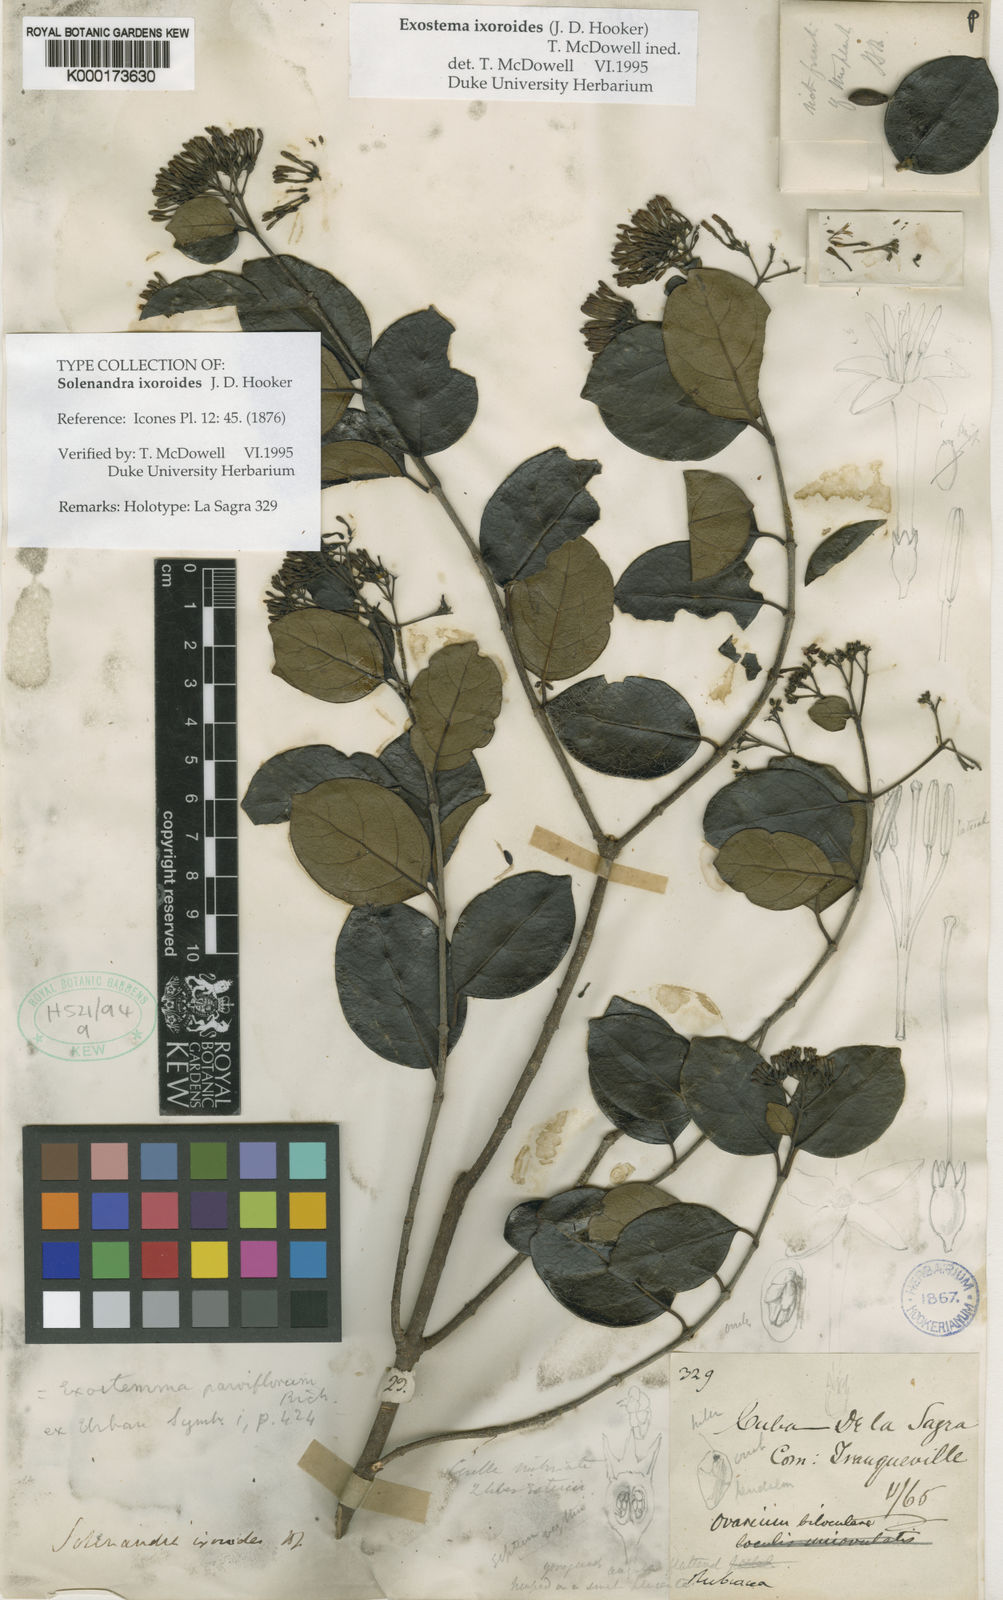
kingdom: Plantae
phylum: Tracheophyta
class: Magnoliopsida
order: Gentianales
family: Rubiaceae
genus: Solenandra
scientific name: Solenandra ixoroides
